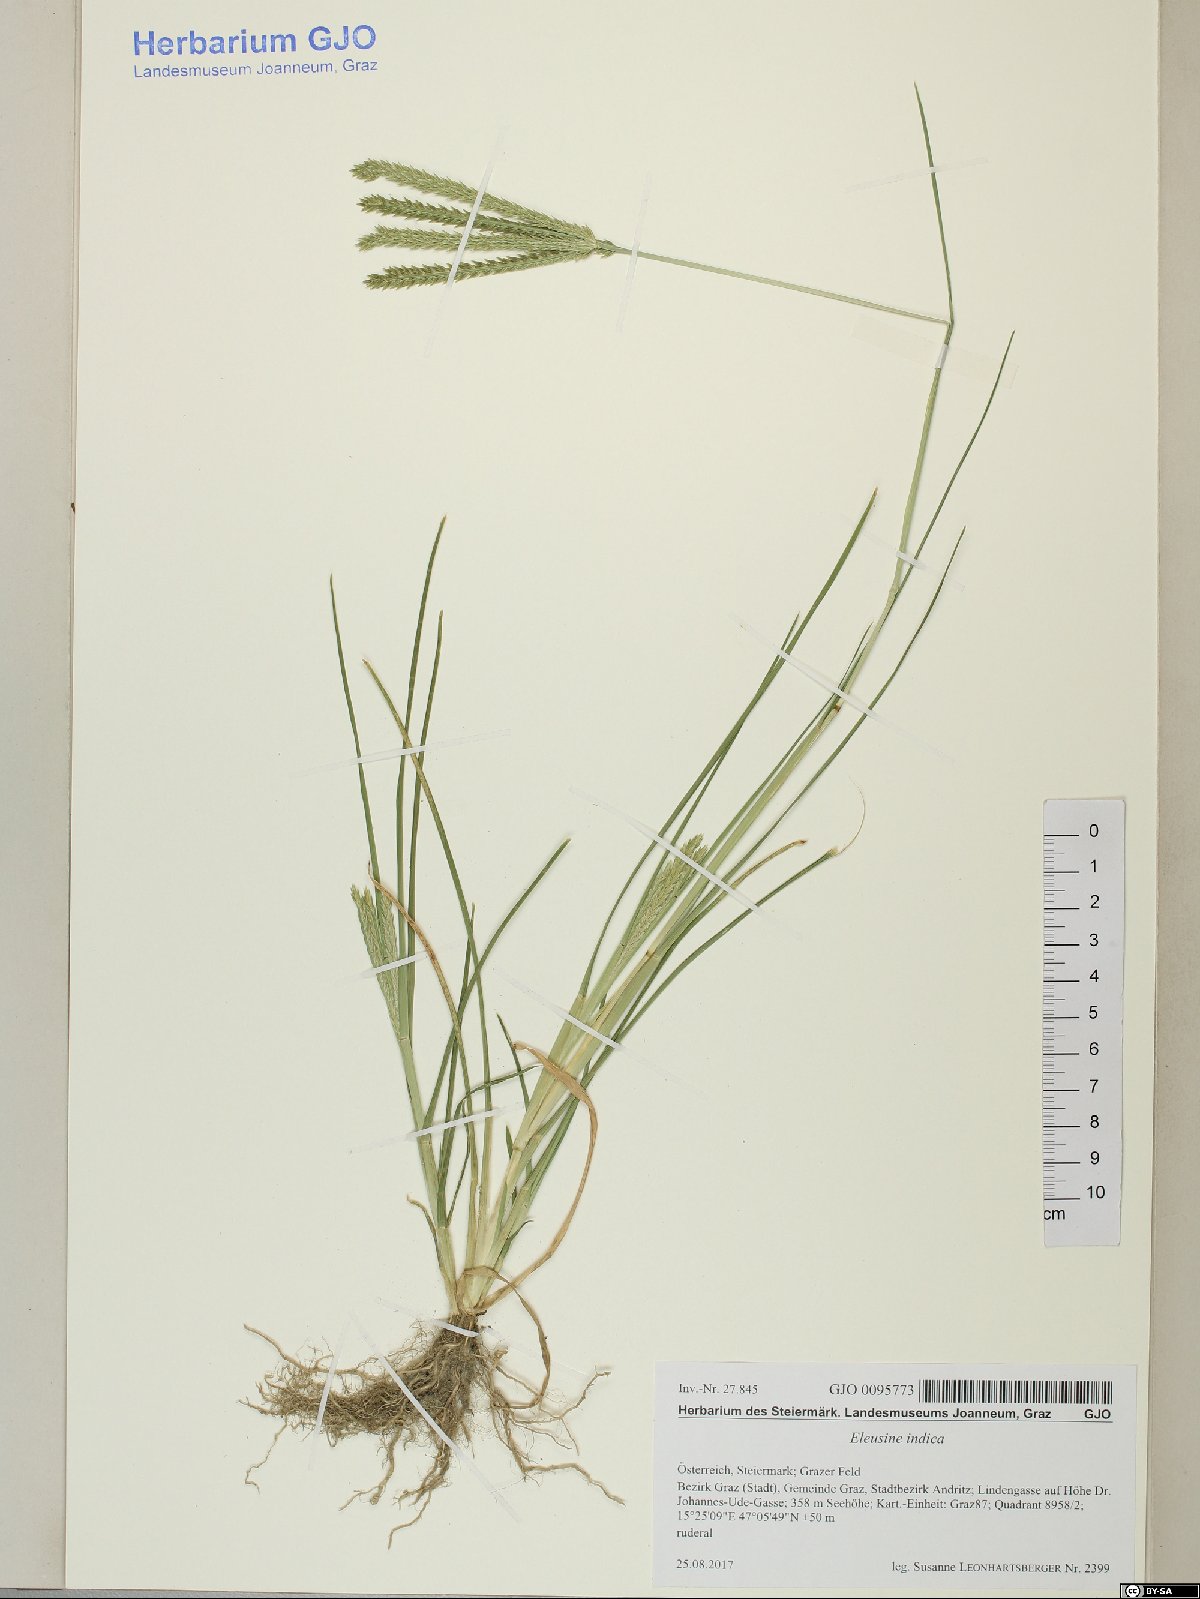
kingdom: Plantae
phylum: Tracheophyta
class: Liliopsida
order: Poales
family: Poaceae
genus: Eleusine
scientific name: Eleusine indica
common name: Yard-grass
